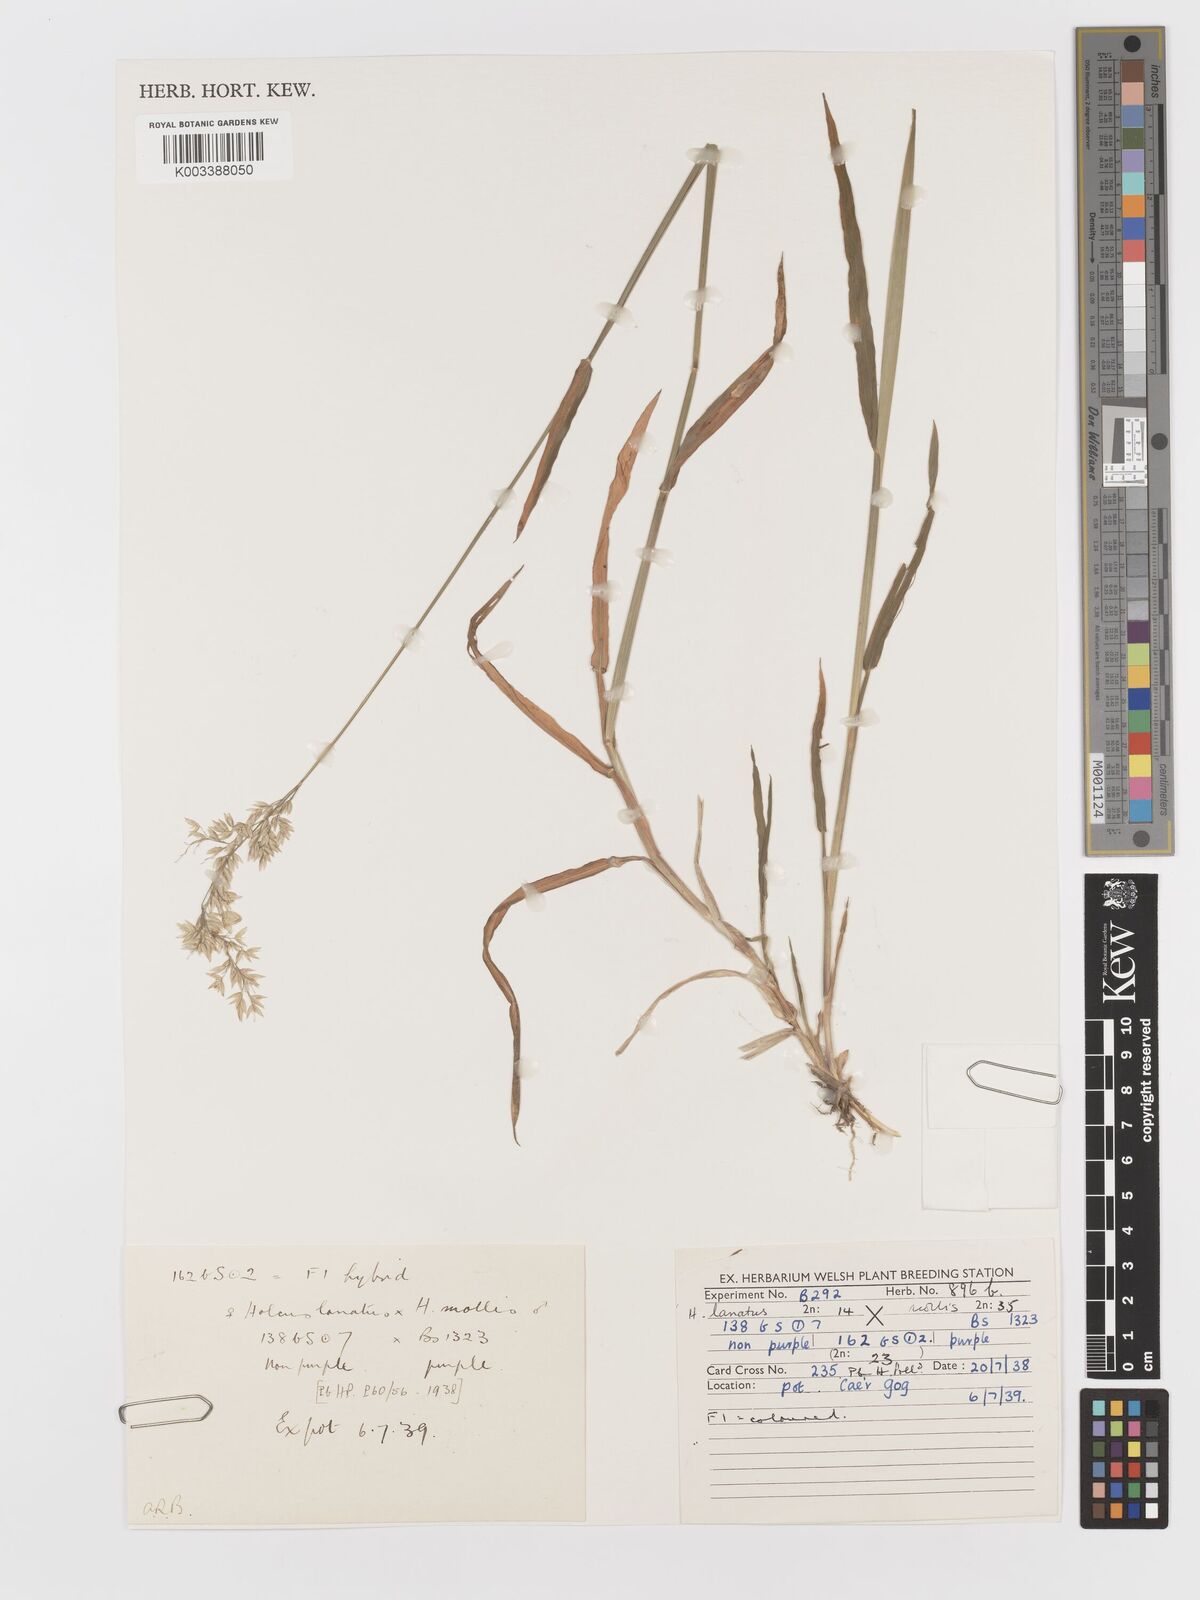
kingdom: Plantae
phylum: Tracheophyta
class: Liliopsida
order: Poales
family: Poaceae
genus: Holcus
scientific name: Holcus lanatus
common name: Yorkshire-fog
